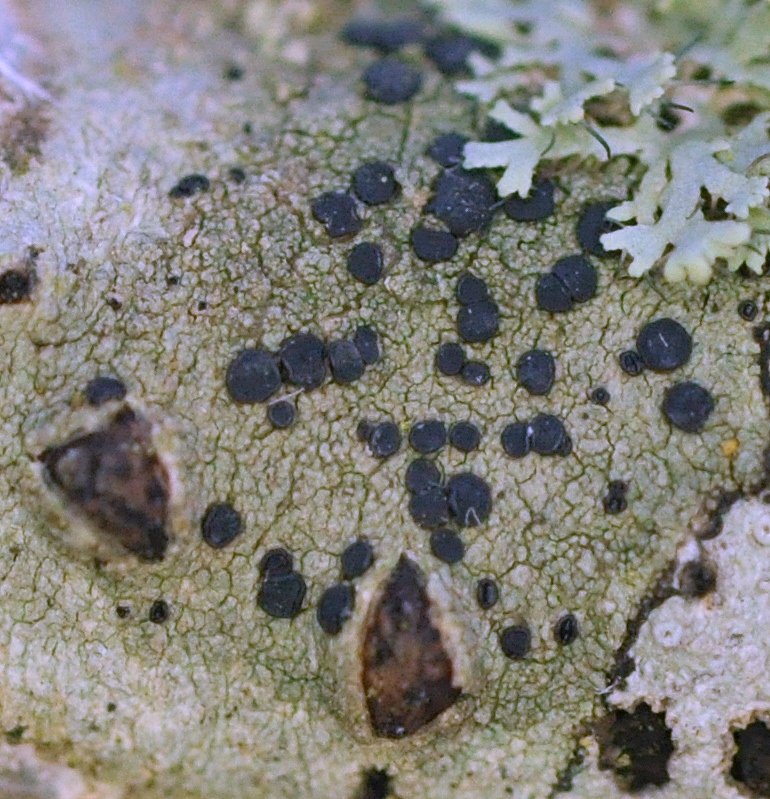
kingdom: Fungi
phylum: Ascomycota
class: Lecanoromycetes
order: Lecanorales
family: Lecanoraceae
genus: Lecidella
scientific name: Lecidella elaeochroma
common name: grågrøn skivelav
